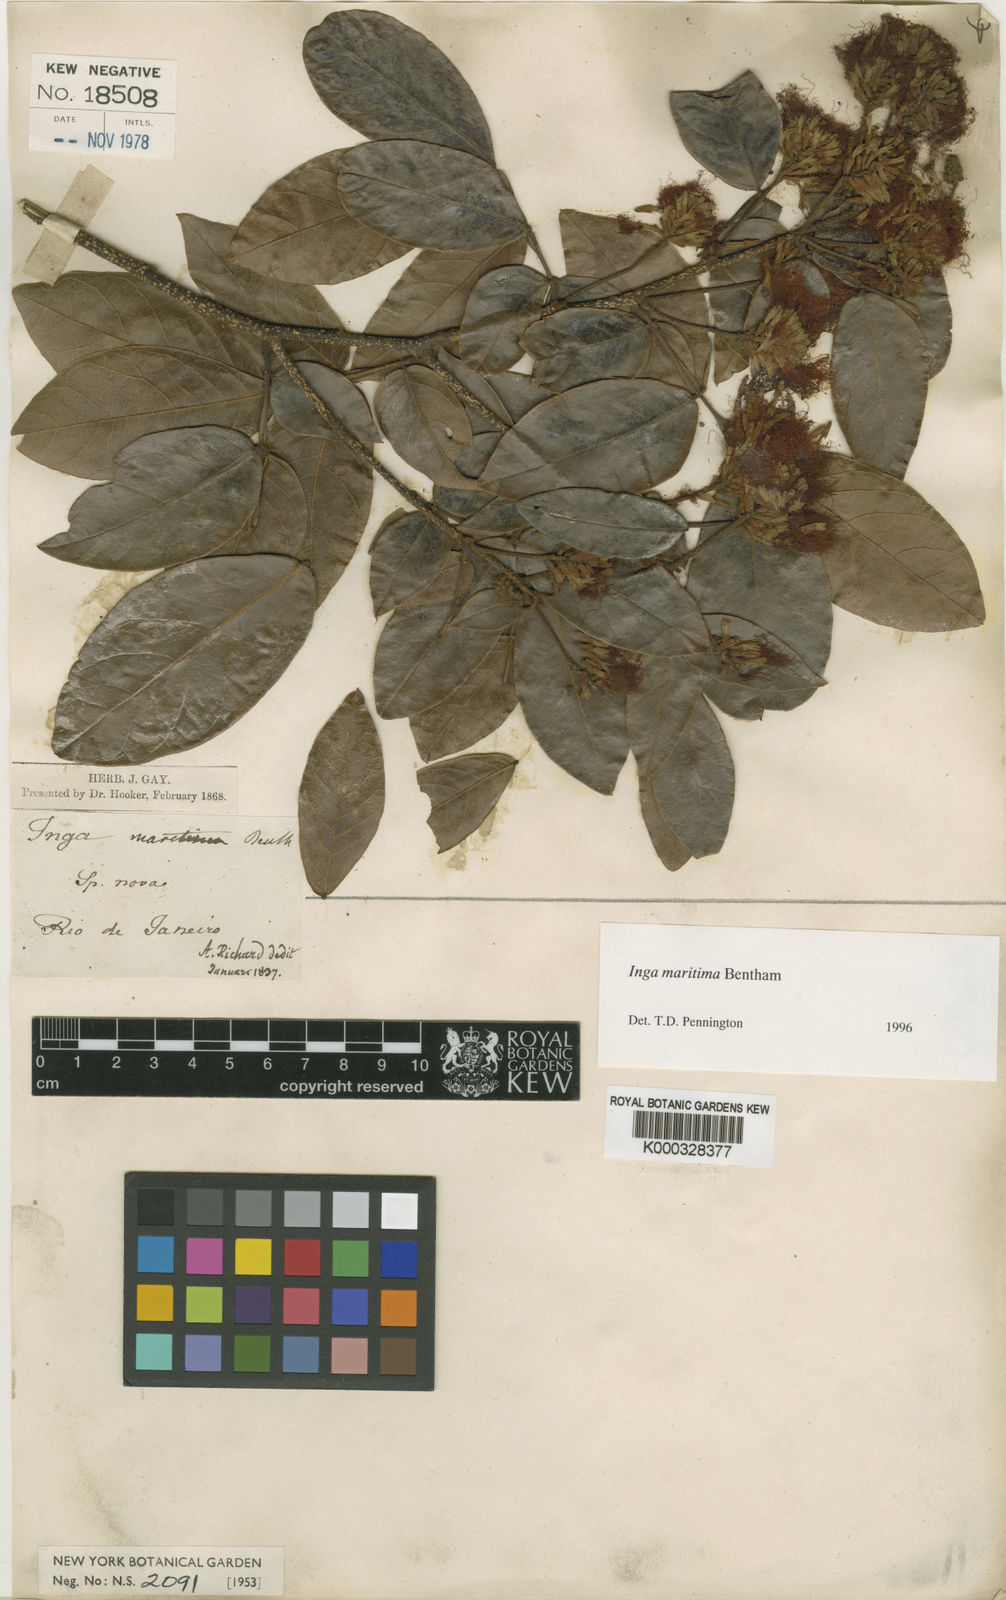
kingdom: Plantae
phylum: Tracheophyta
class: Magnoliopsida
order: Fabales
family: Fabaceae
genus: Inga
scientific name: Inga maritima
